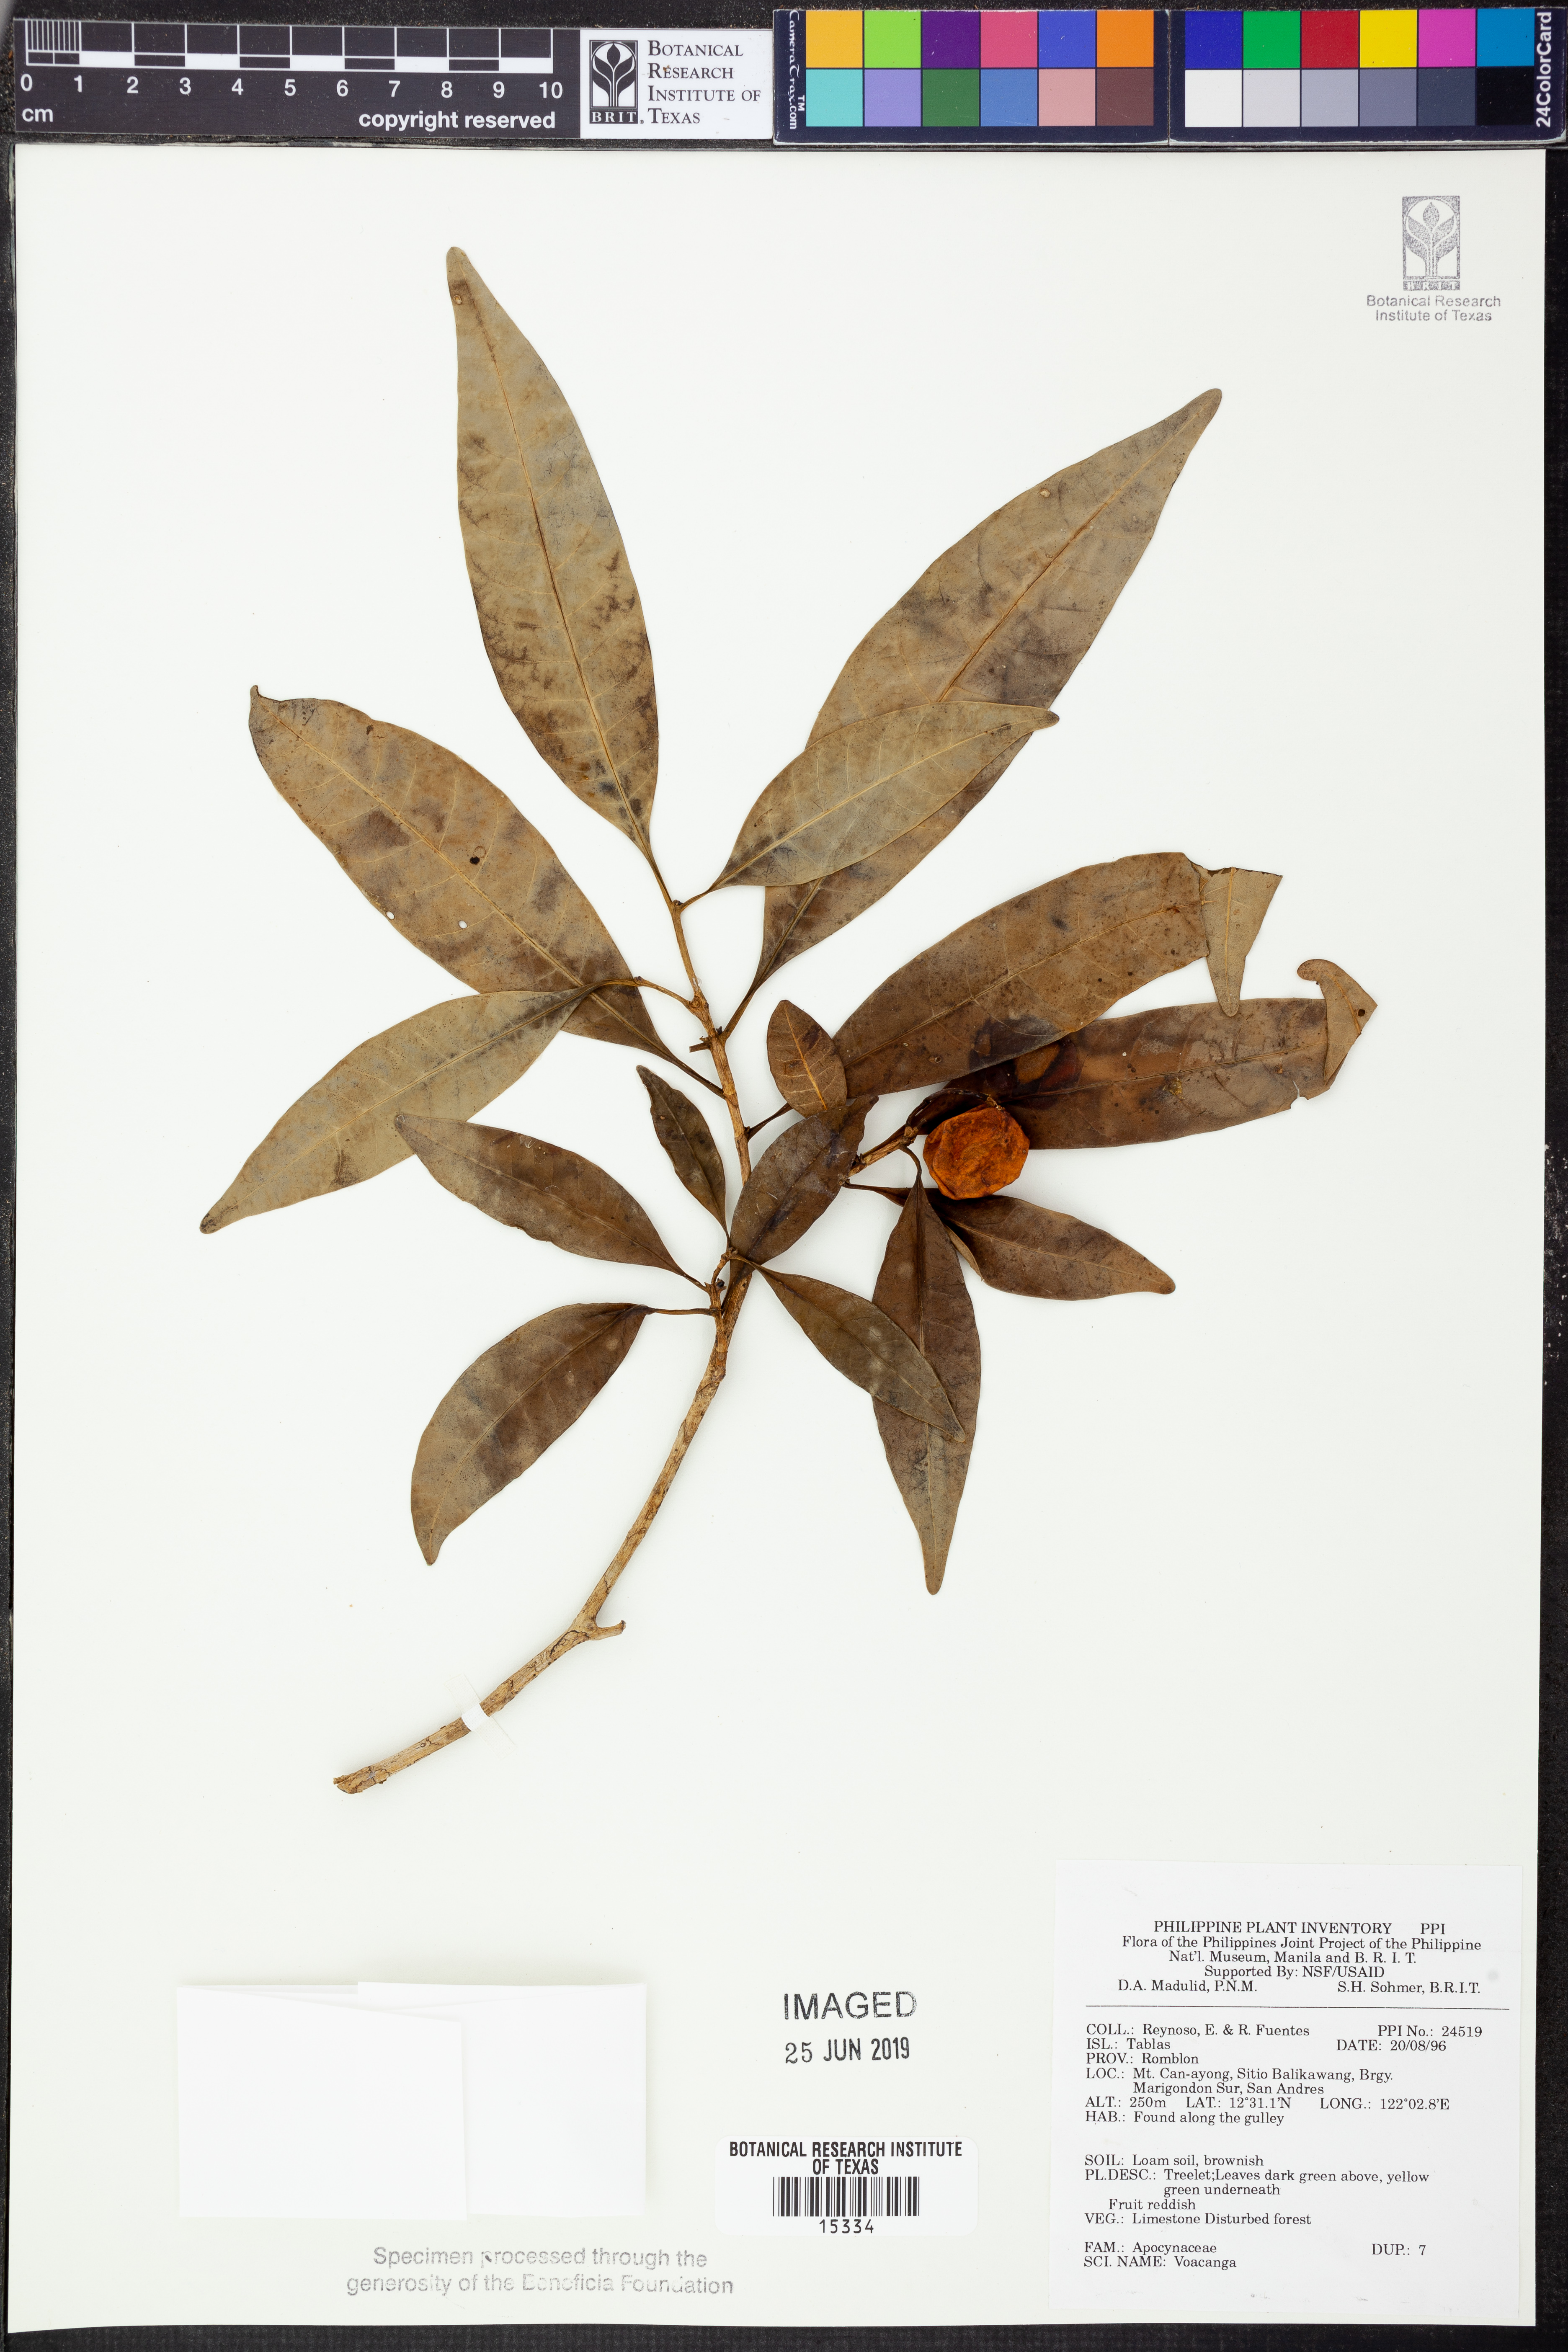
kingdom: Plantae
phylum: Tracheophyta
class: Magnoliopsida
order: Gentianales
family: Apocynaceae
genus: Voacanga
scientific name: Voacanga
